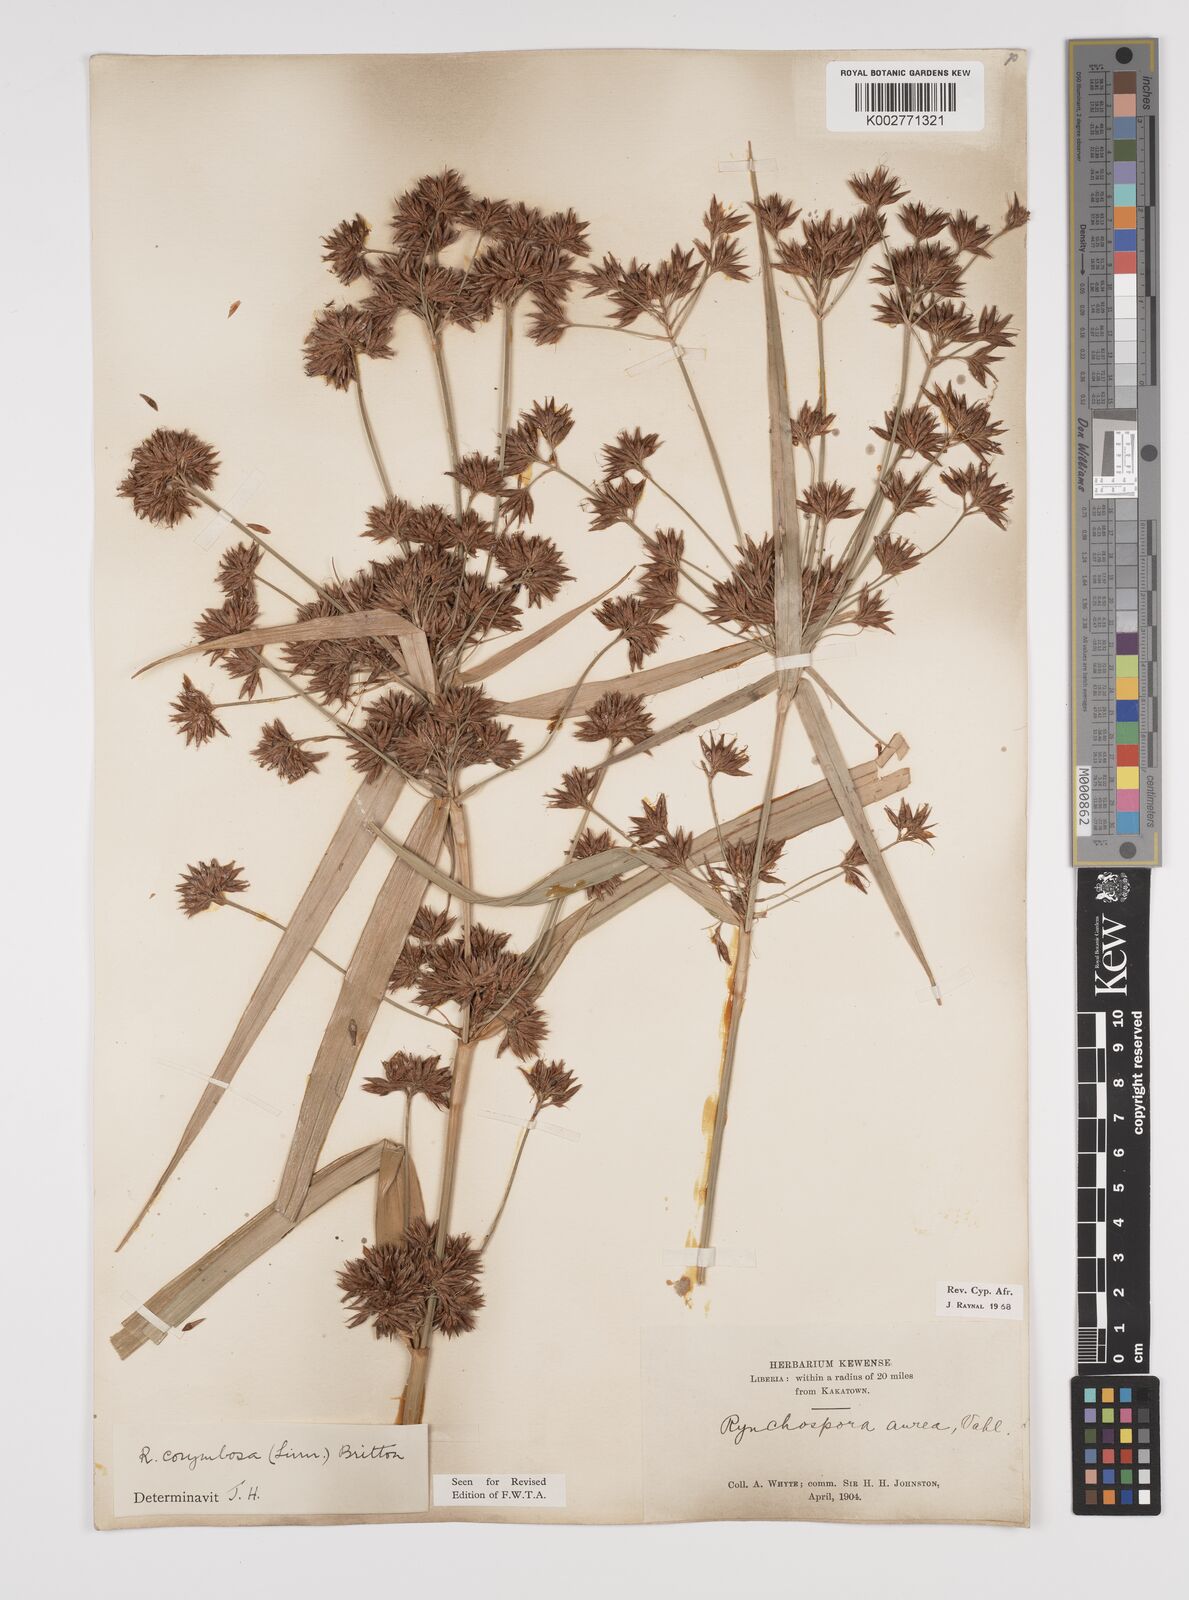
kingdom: Plantae
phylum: Tracheophyta
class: Liliopsida
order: Poales
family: Cyperaceae
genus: Rhynchospora
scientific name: Rhynchospora corymbosa
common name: Golden beak sedge
